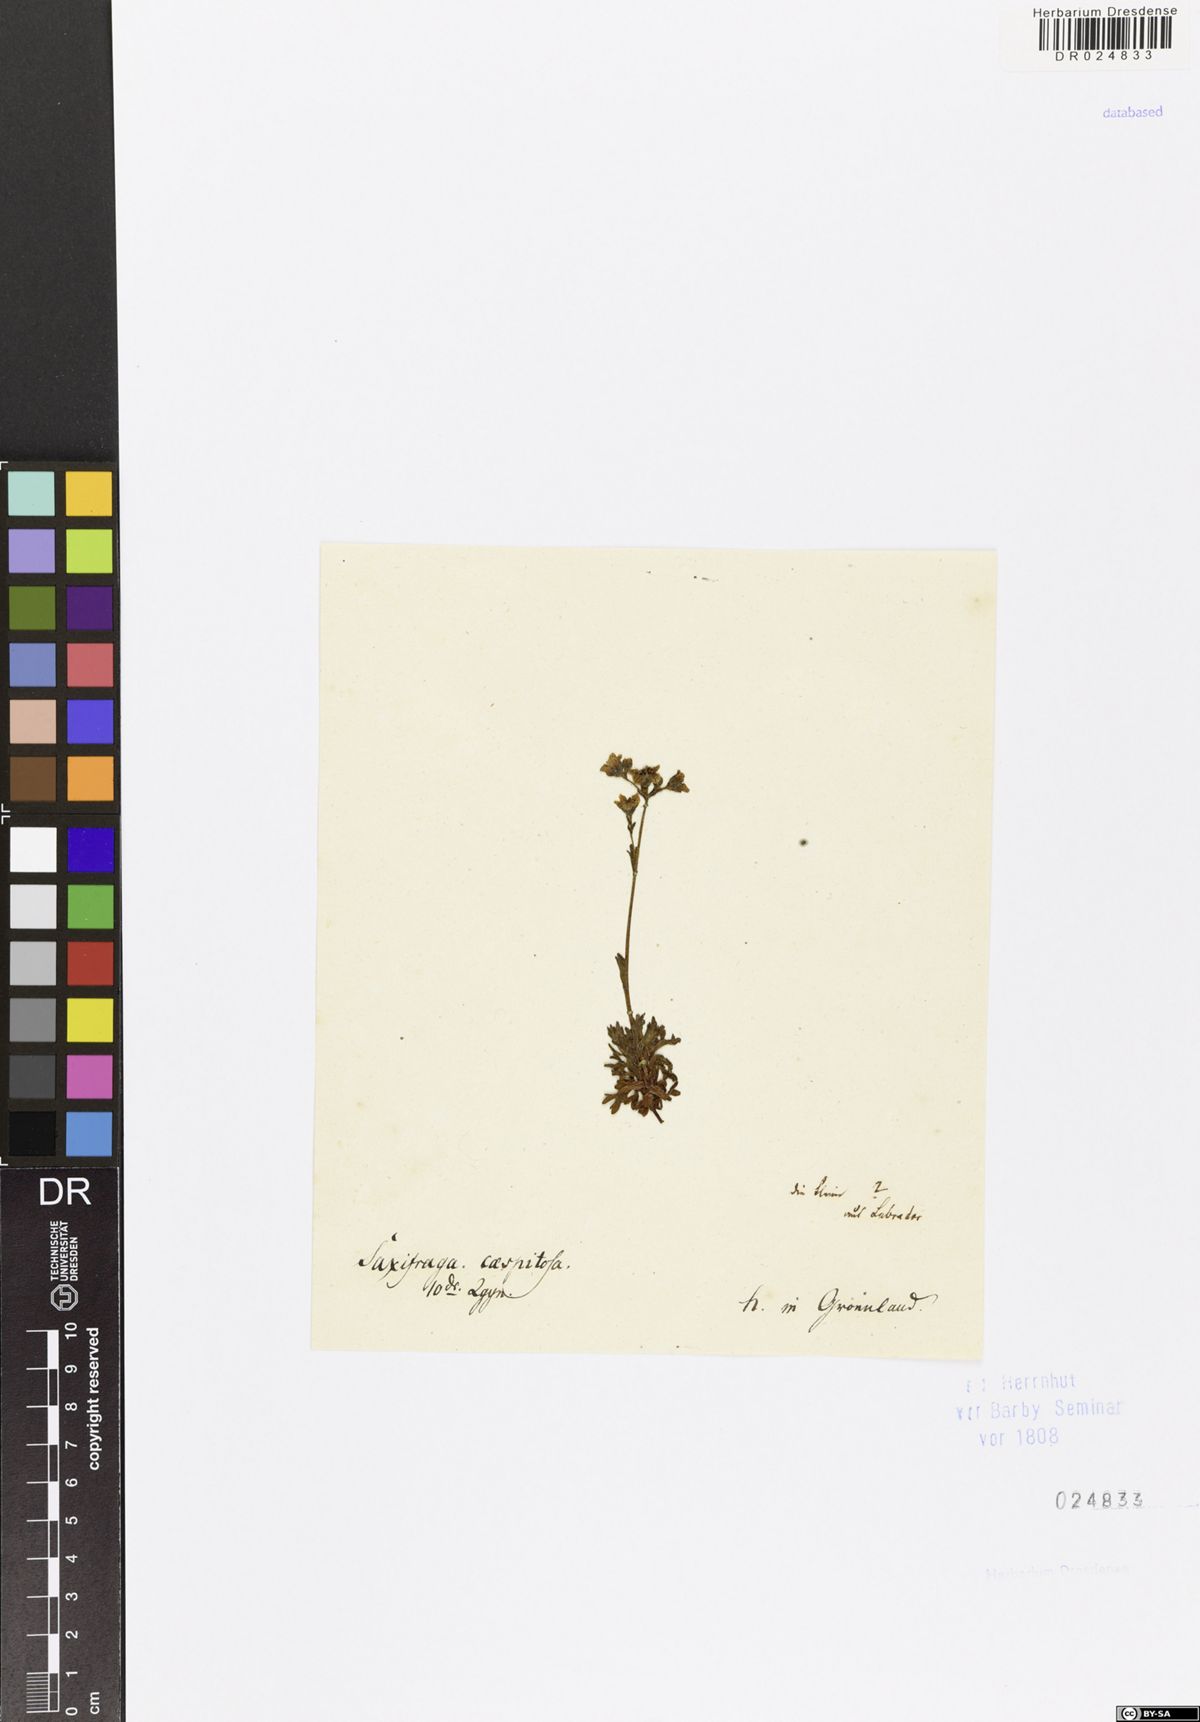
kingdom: Plantae
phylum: Tracheophyta
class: Magnoliopsida
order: Saxifragales
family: Saxifragaceae
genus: Saxifraga
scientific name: Saxifraga cespitosa
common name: Tufted saxifrage
